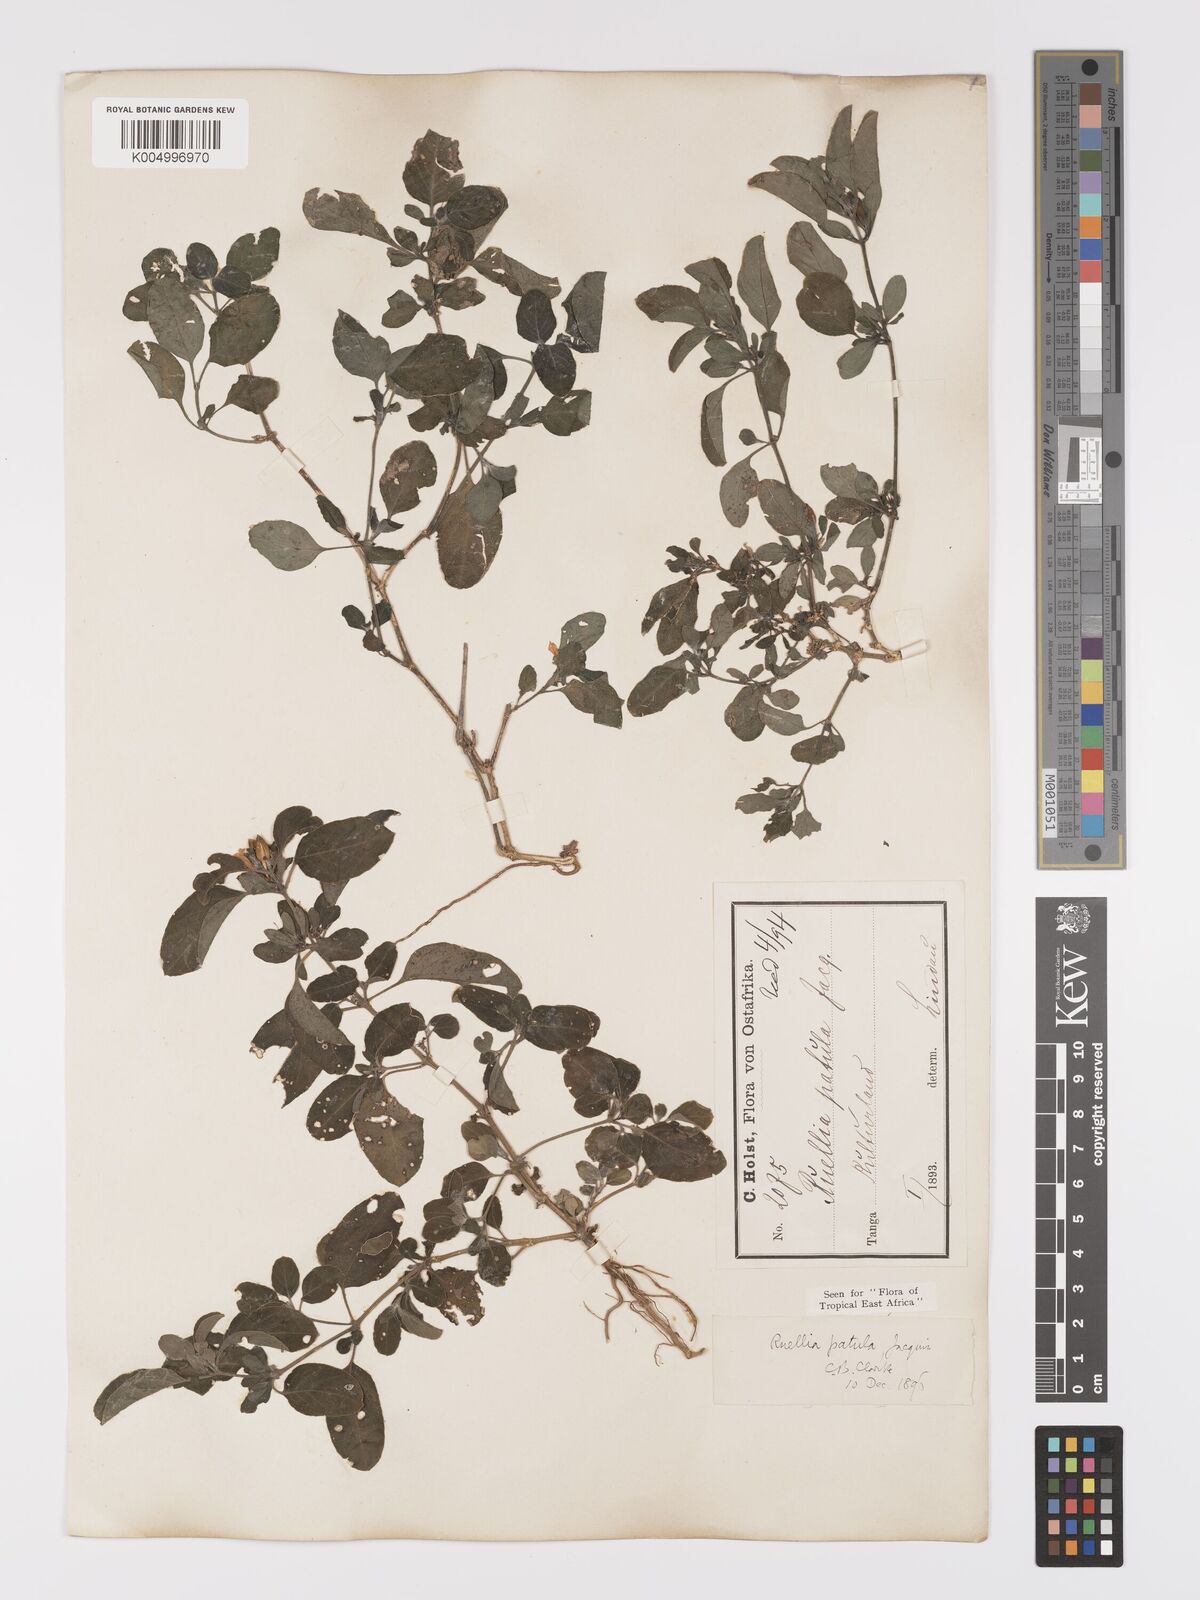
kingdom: Plantae
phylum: Tracheophyta
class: Magnoliopsida
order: Lamiales
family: Acanthaceae
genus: Ruellia
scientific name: Ruellia patula
